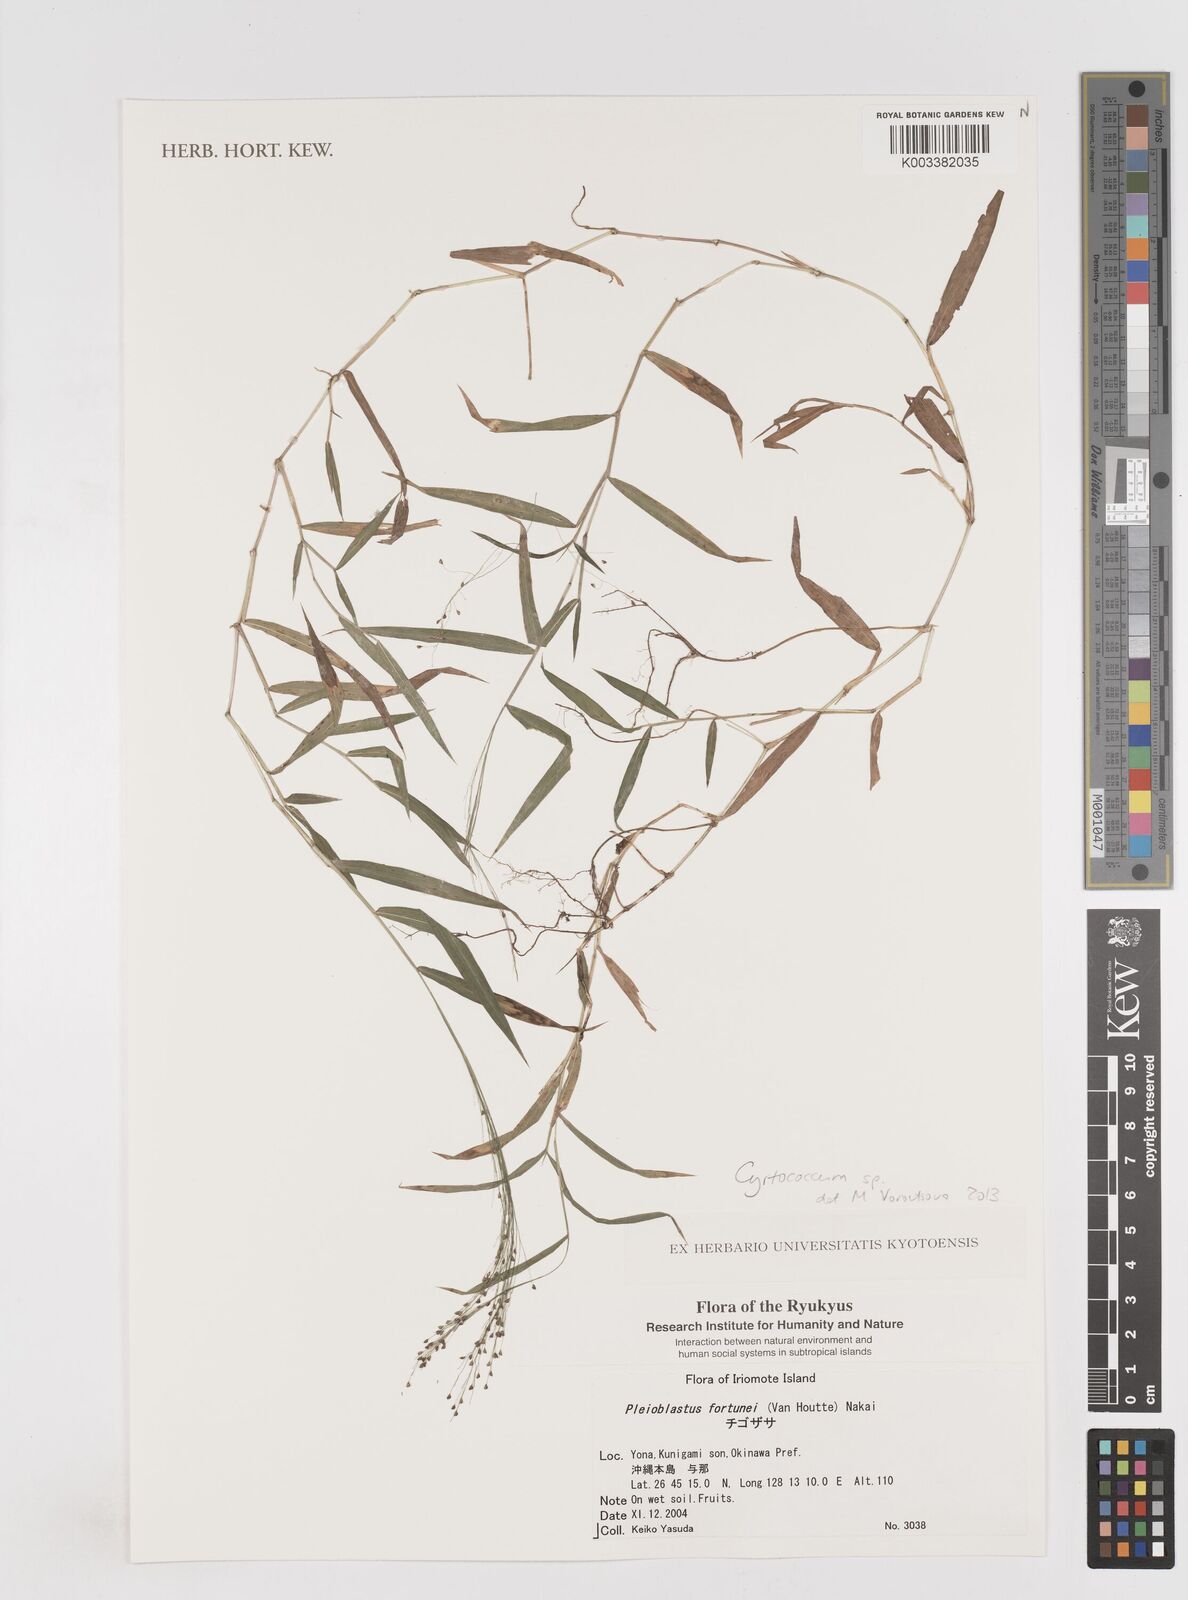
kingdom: Plantae
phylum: Tracheophyta
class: Liliopsida
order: Poales
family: Poaceae
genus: Cyrtococcum
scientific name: Cyrtococcum
